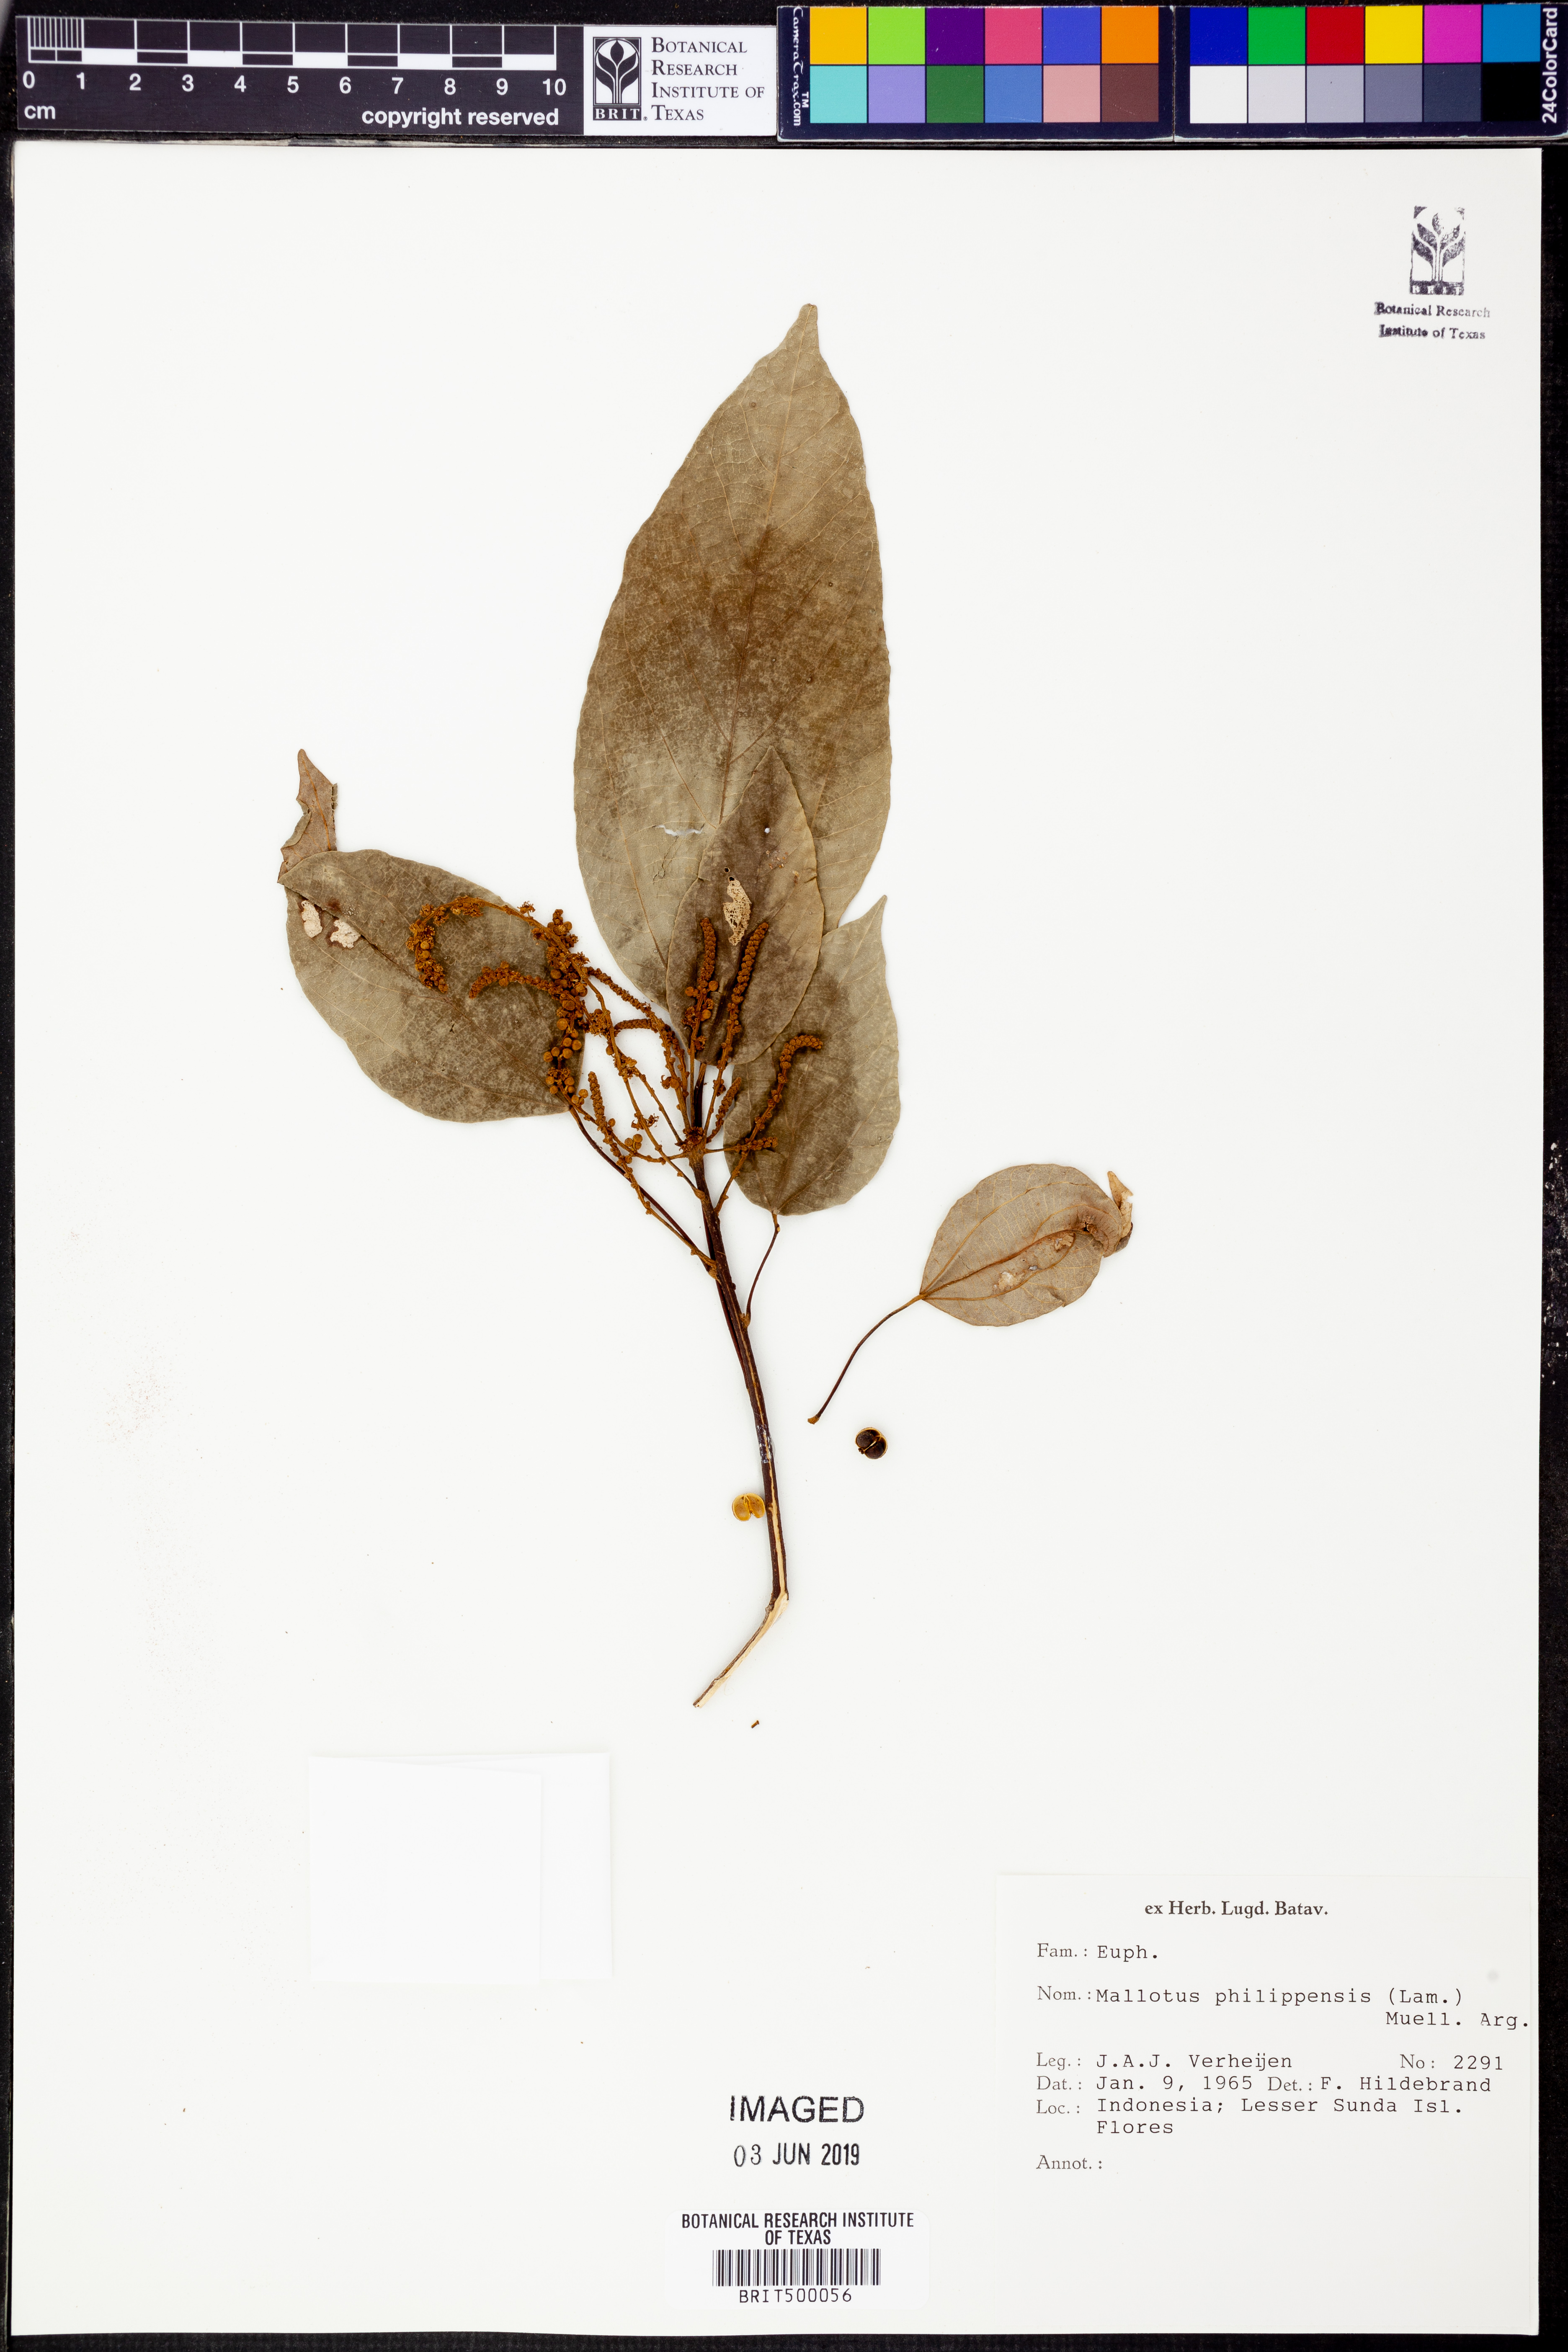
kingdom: Plantae
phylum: Tracheophyta
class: Magnoliopsida
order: Malpighiales
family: Euphorbiaceae
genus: Mallotus
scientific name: Mallotus philippensis
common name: Kamala tree
